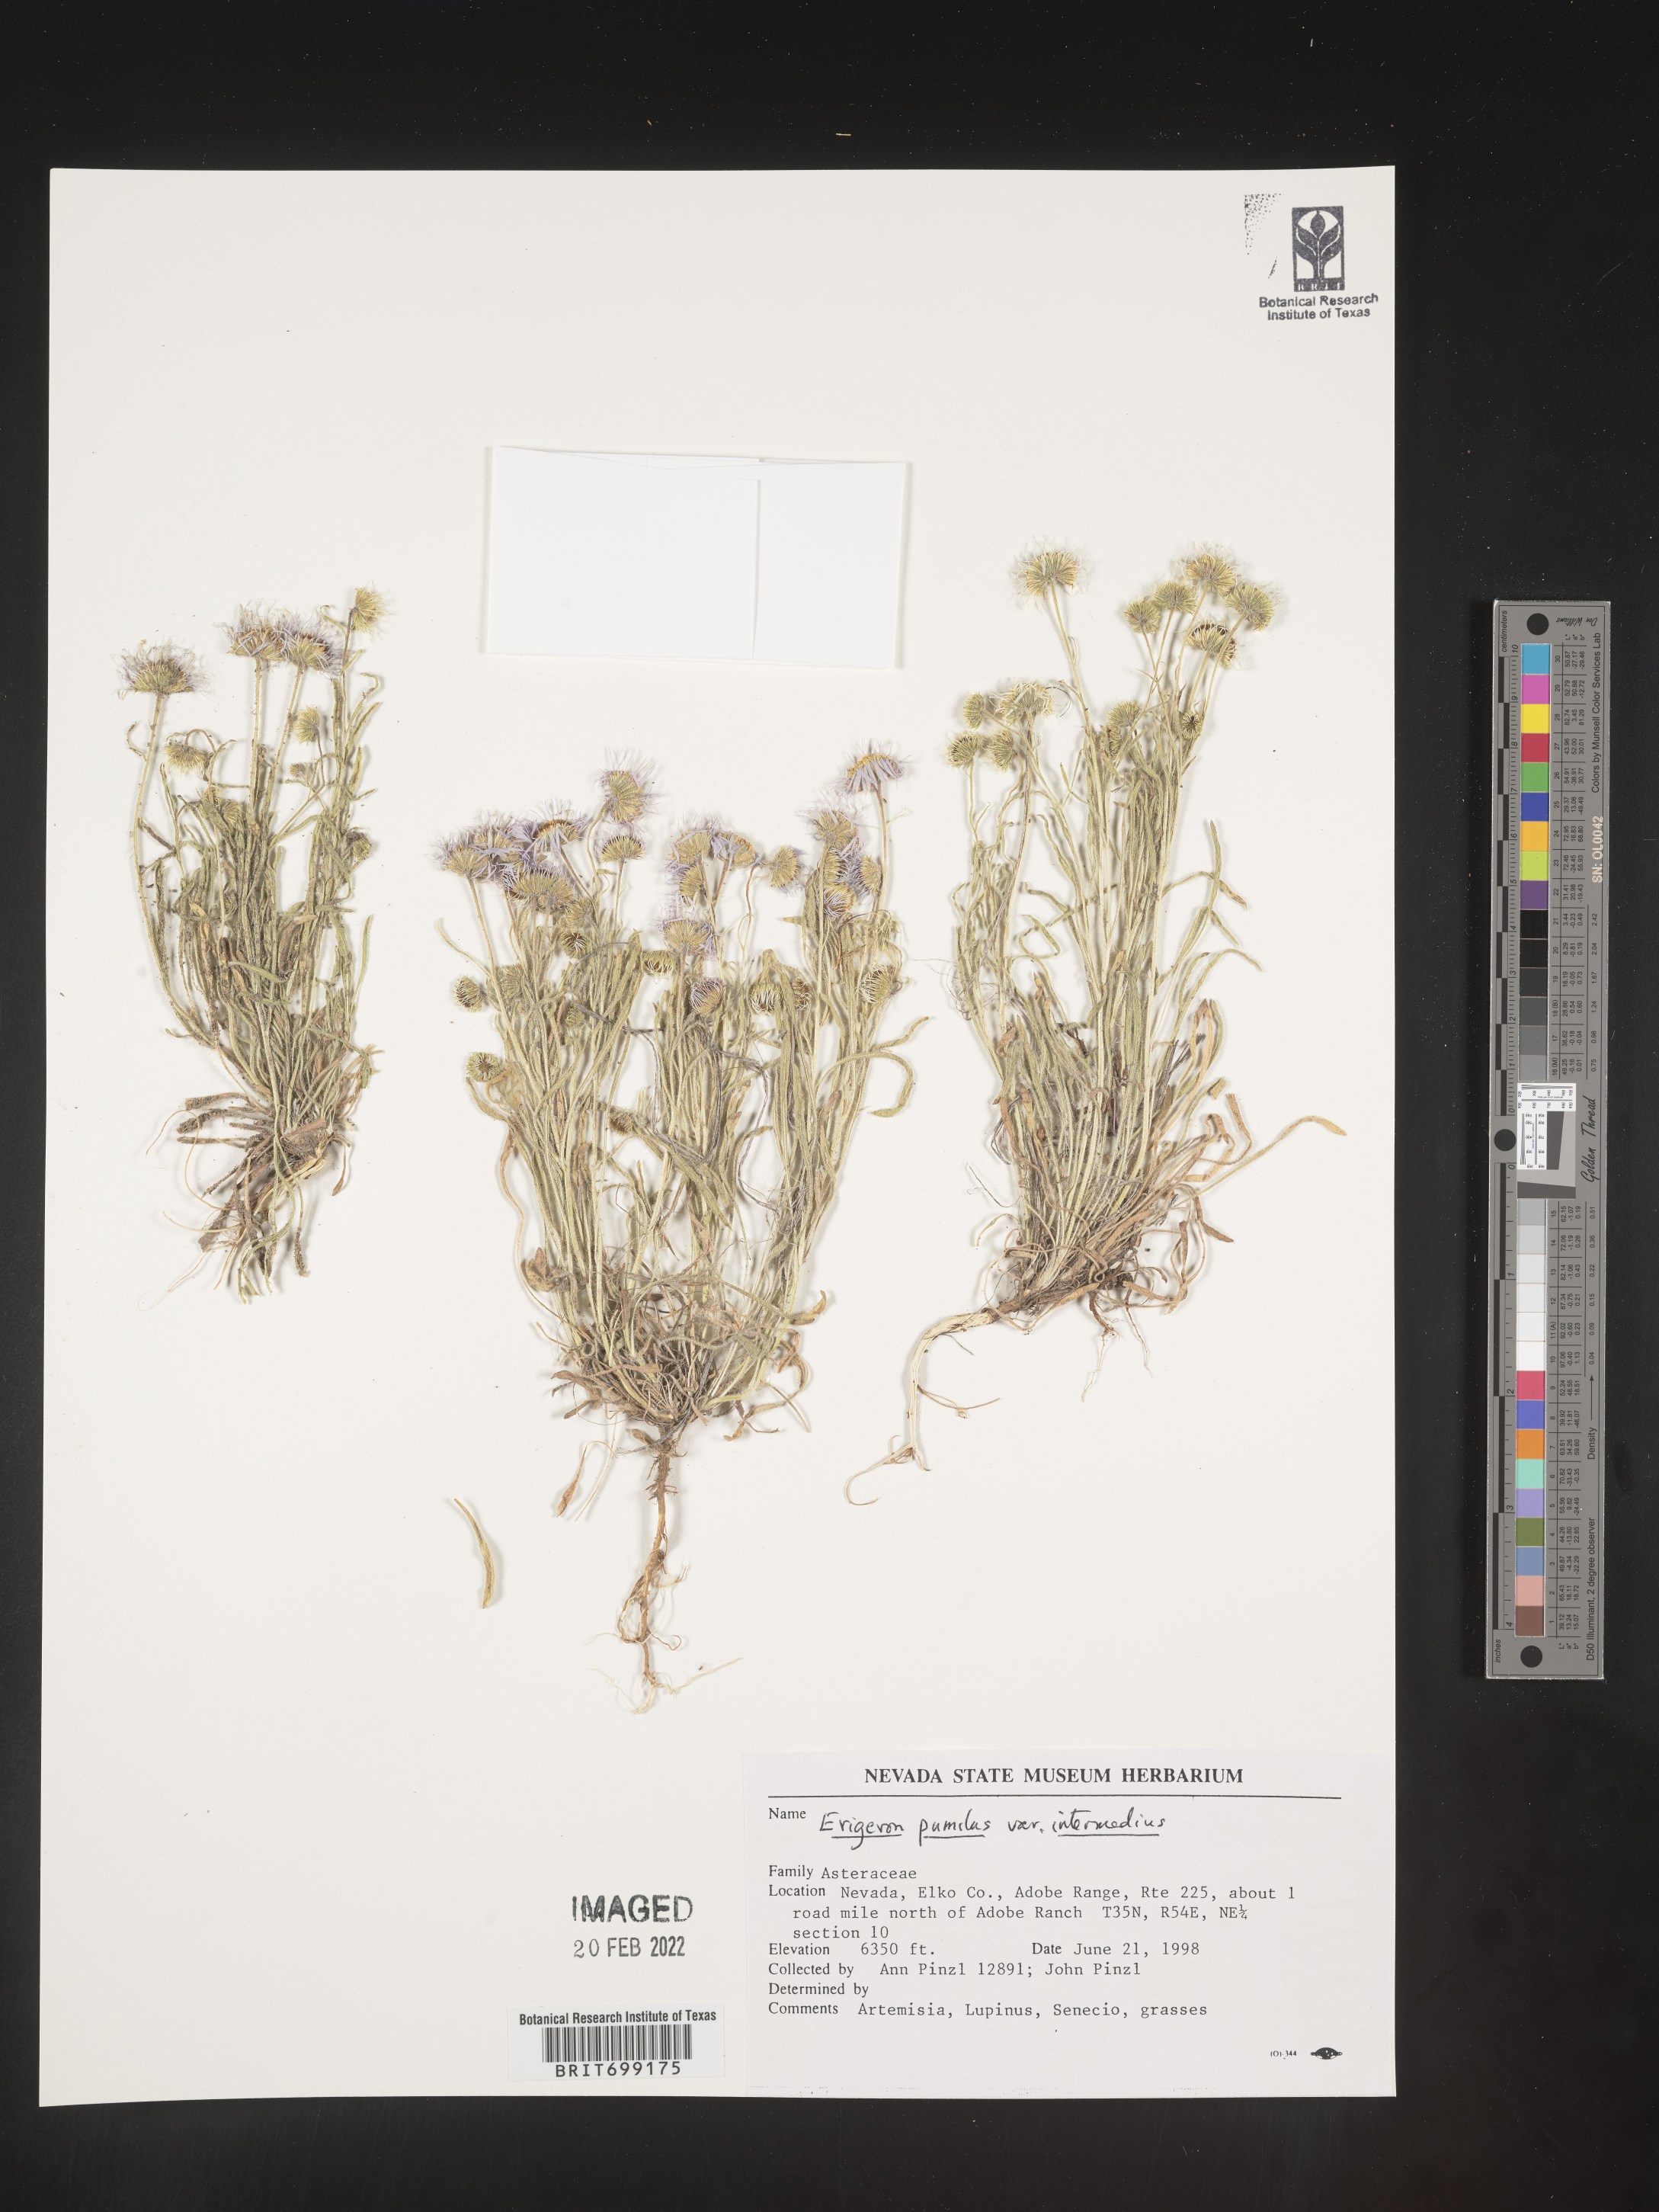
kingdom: Plantae
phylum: Tracheophyta
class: Magnoliopsida
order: Asterales
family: Asteraceae
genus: Erigeron
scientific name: Erigeron pumilus
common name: Shaggy fleabane
